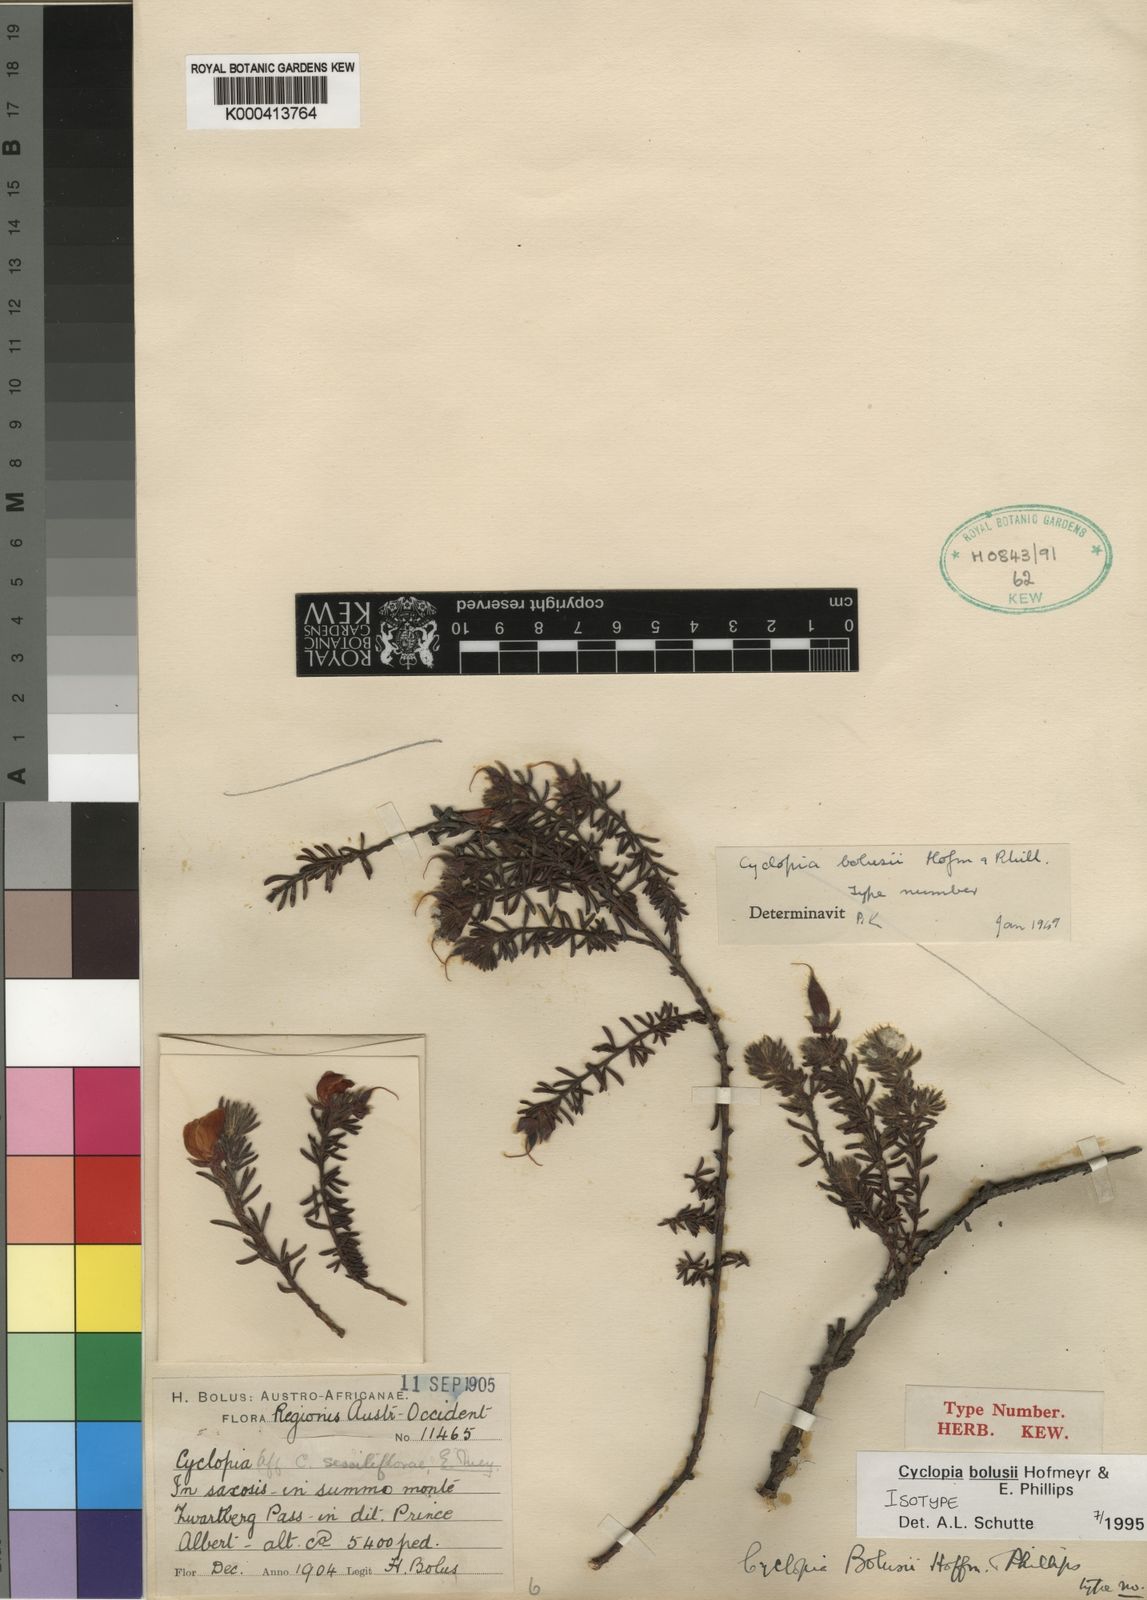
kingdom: Plantae
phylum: Tracheophyta
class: Magnoliopsida
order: Fabales
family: Fabaceae
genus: Cyclopia
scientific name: Cyclopia bolusii
